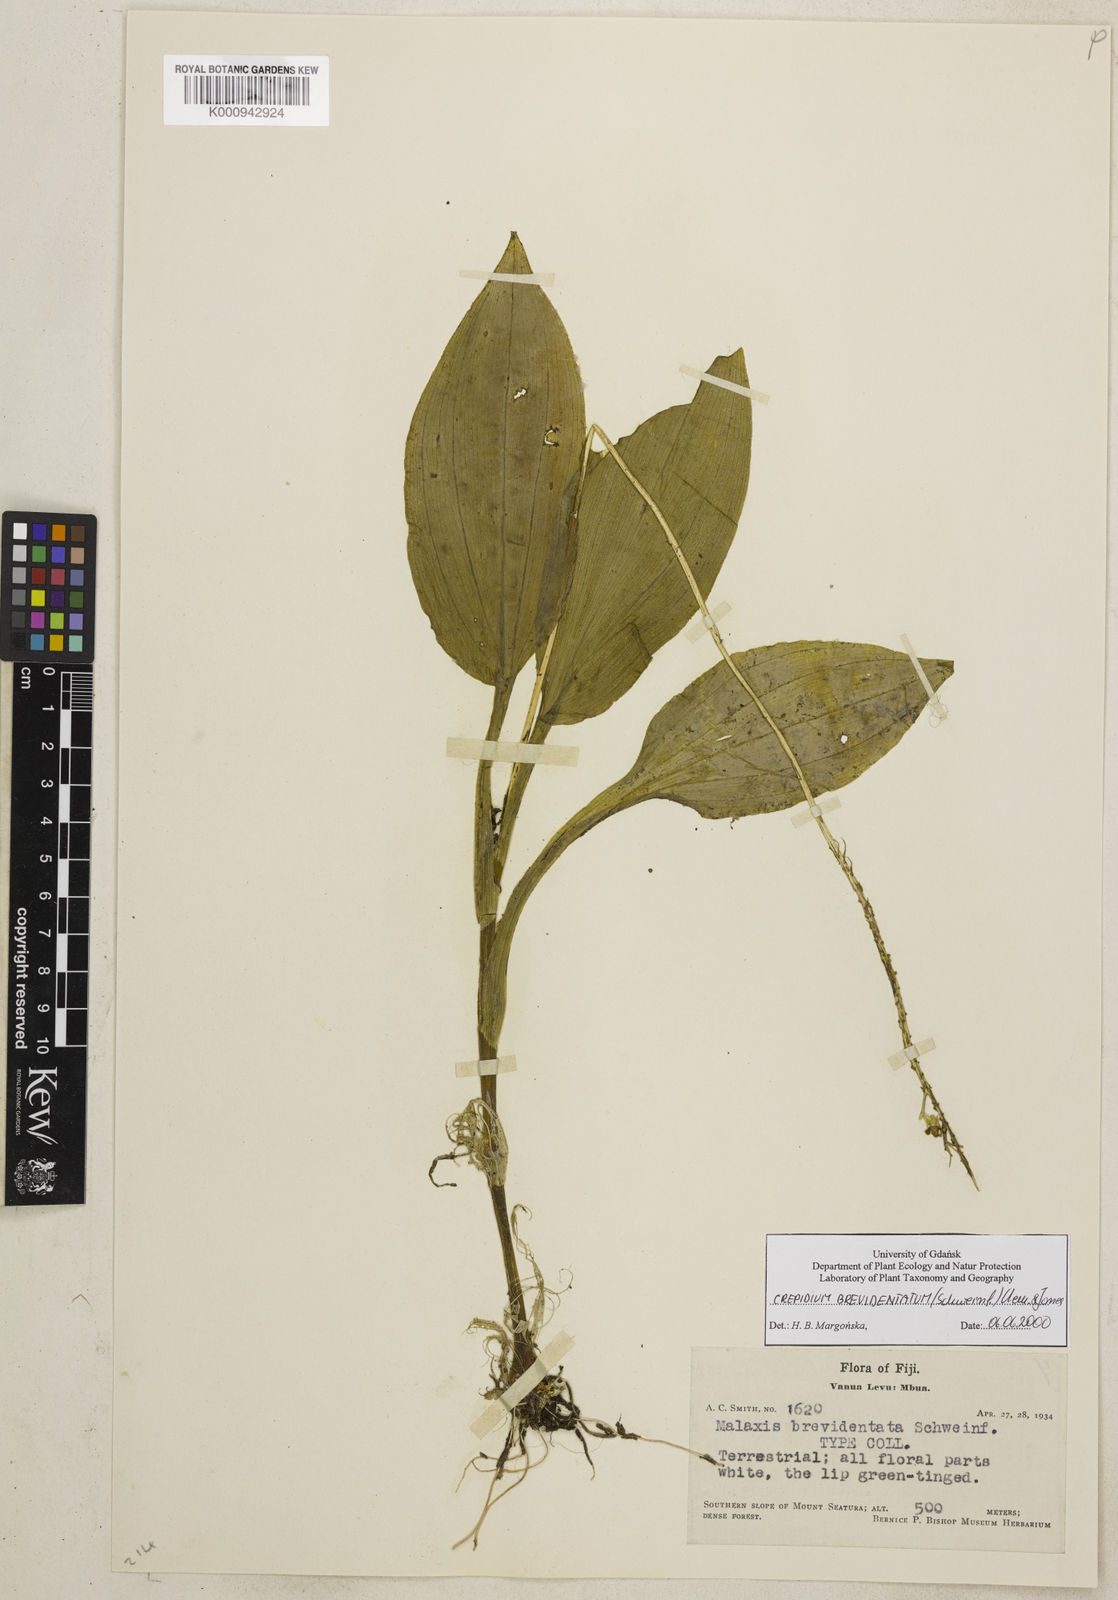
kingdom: Plantae
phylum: Tracheophyta
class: Liliopsida
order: Asparagales
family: Orchidaceae
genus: Crepidium
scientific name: Crepidium brevidentatum
